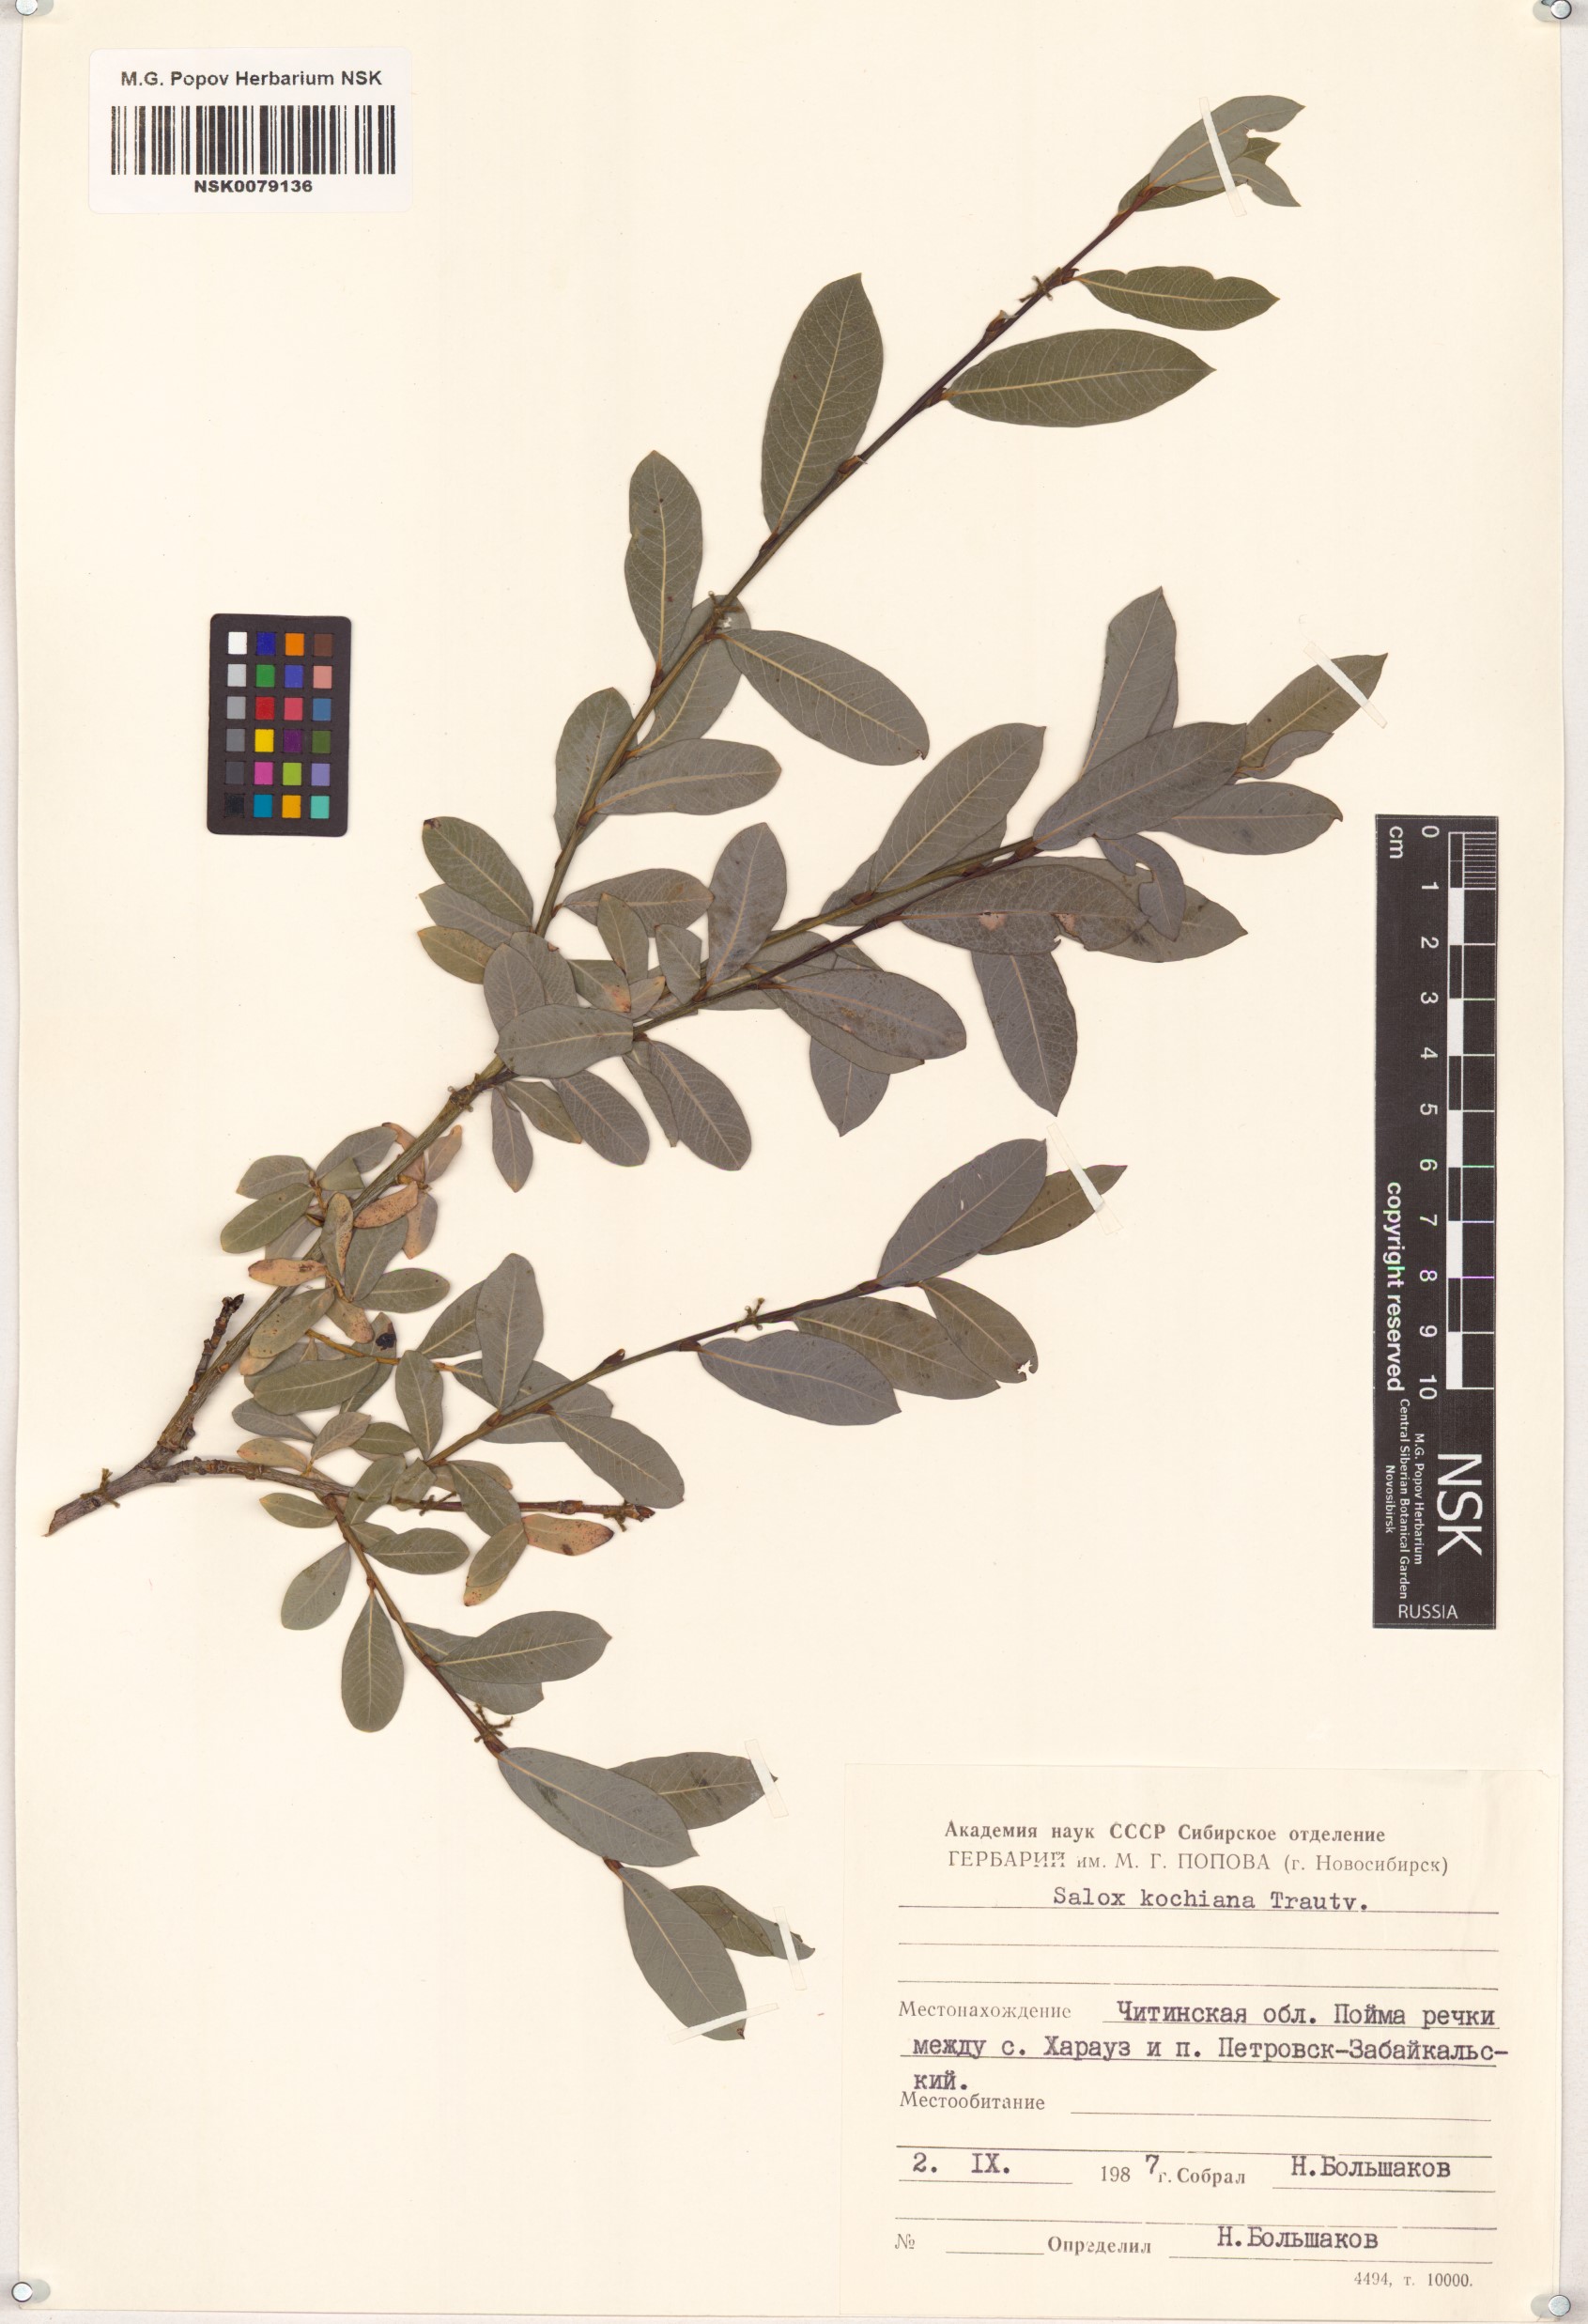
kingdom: Plantae
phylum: Tracheophyta
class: Magnoliopsida
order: Malpighiales
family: Salicaceae
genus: Salix
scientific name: Salix kochiana
